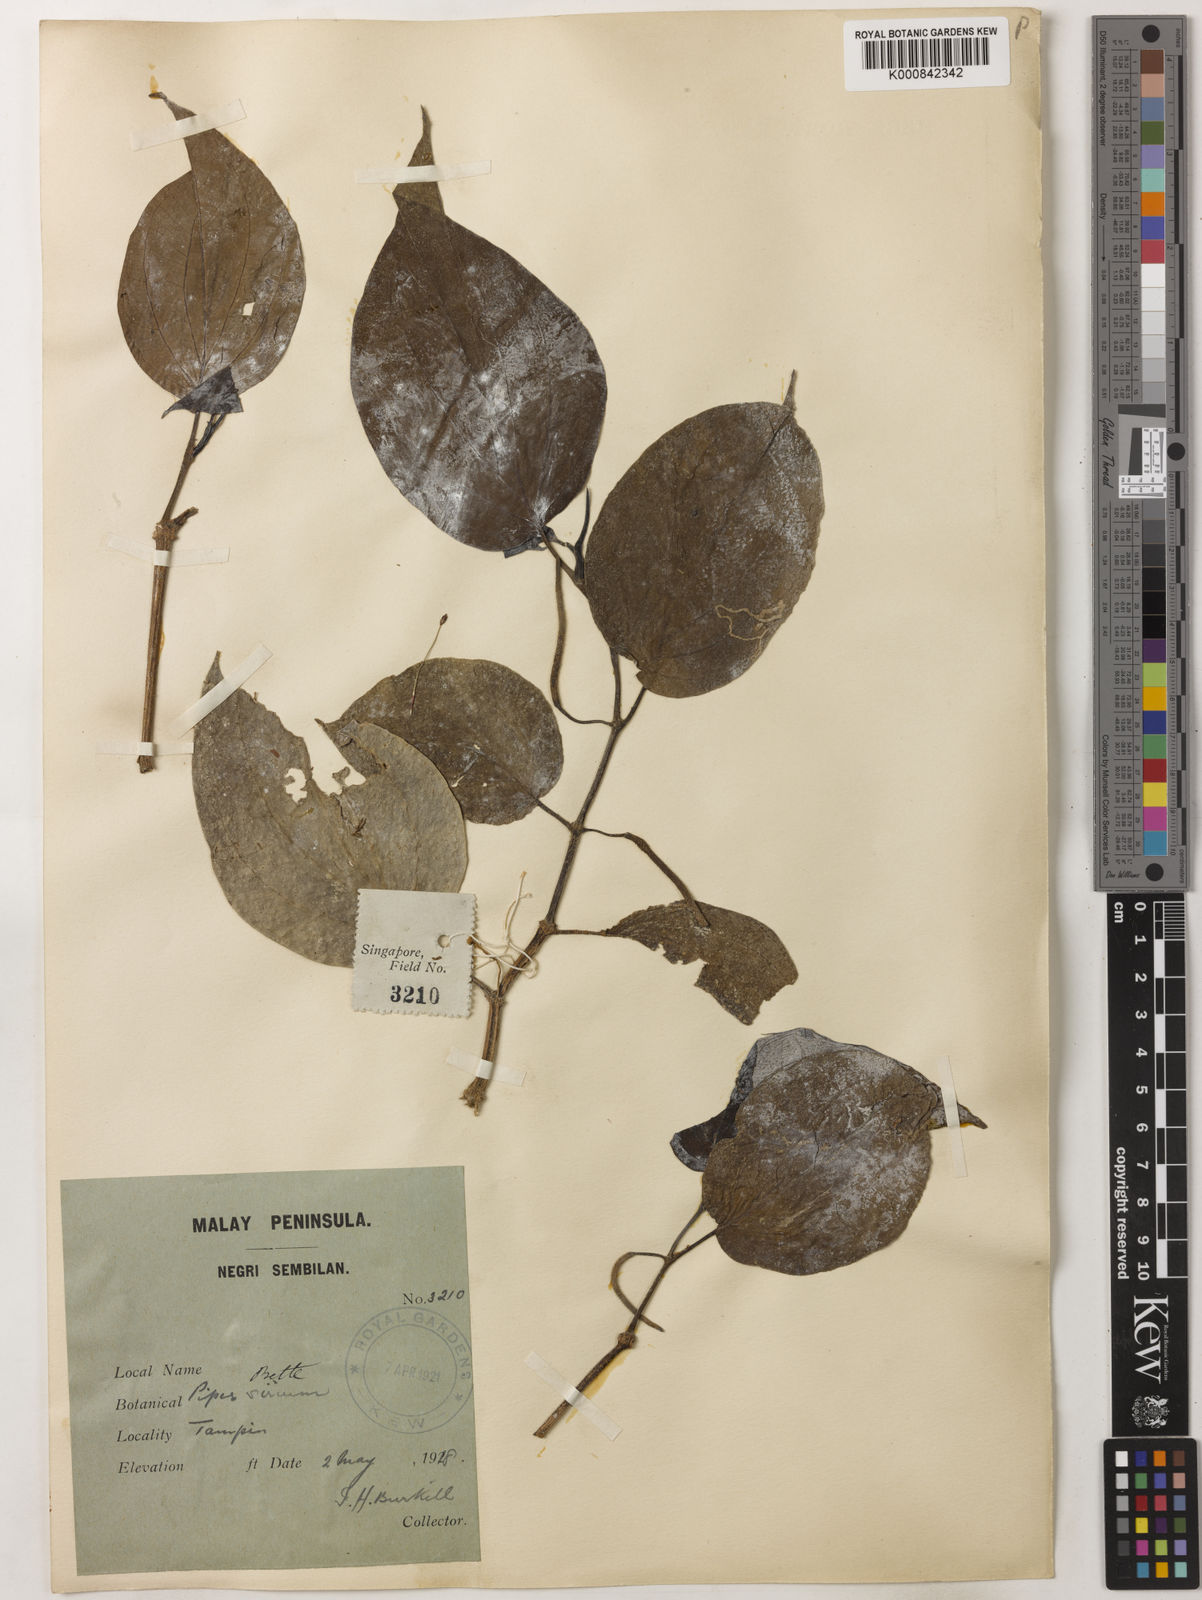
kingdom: Plantae
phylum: Tracheophyta
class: Magnoliopsida
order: Piperales
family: Piperaceae
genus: Piper
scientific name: Piper betle
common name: Betel pepper
